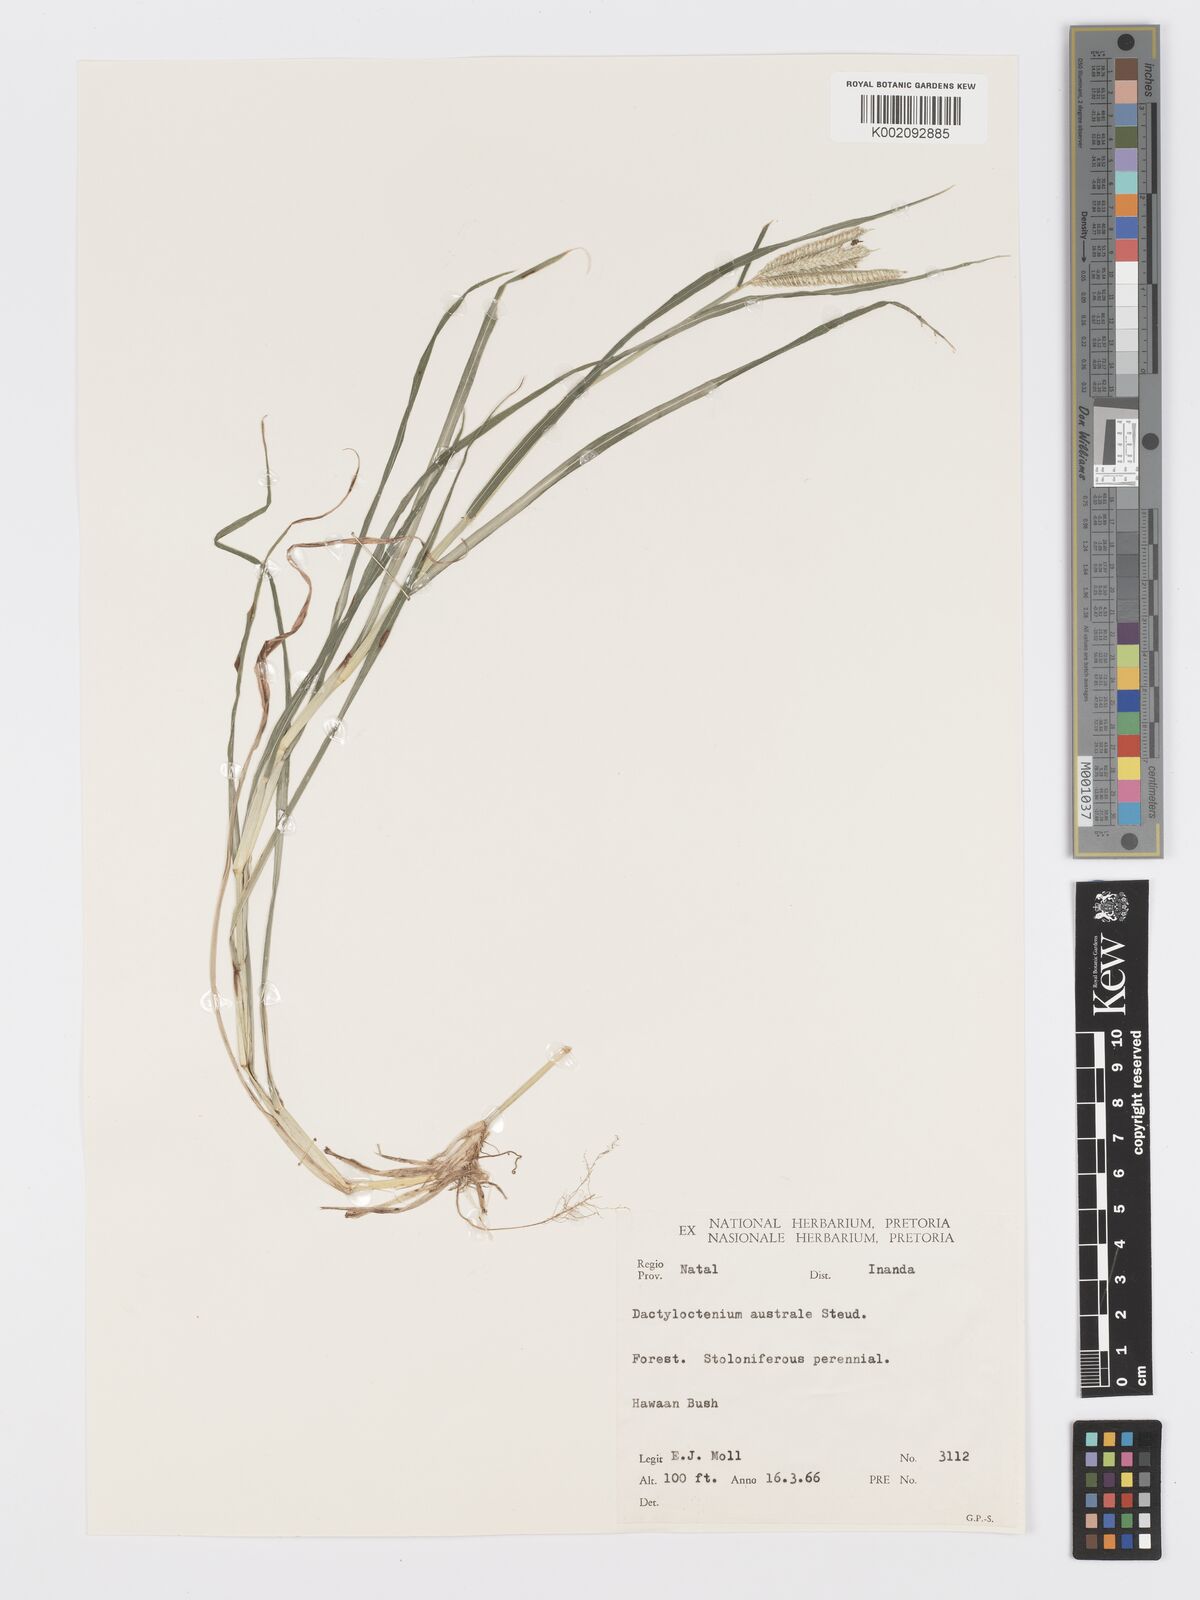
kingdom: Plantae
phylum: Tracheophyta
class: Liliopsida
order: Poales
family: Poaceae
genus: Dactyloctenium
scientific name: Dactyloctenium australe
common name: Durban grass
